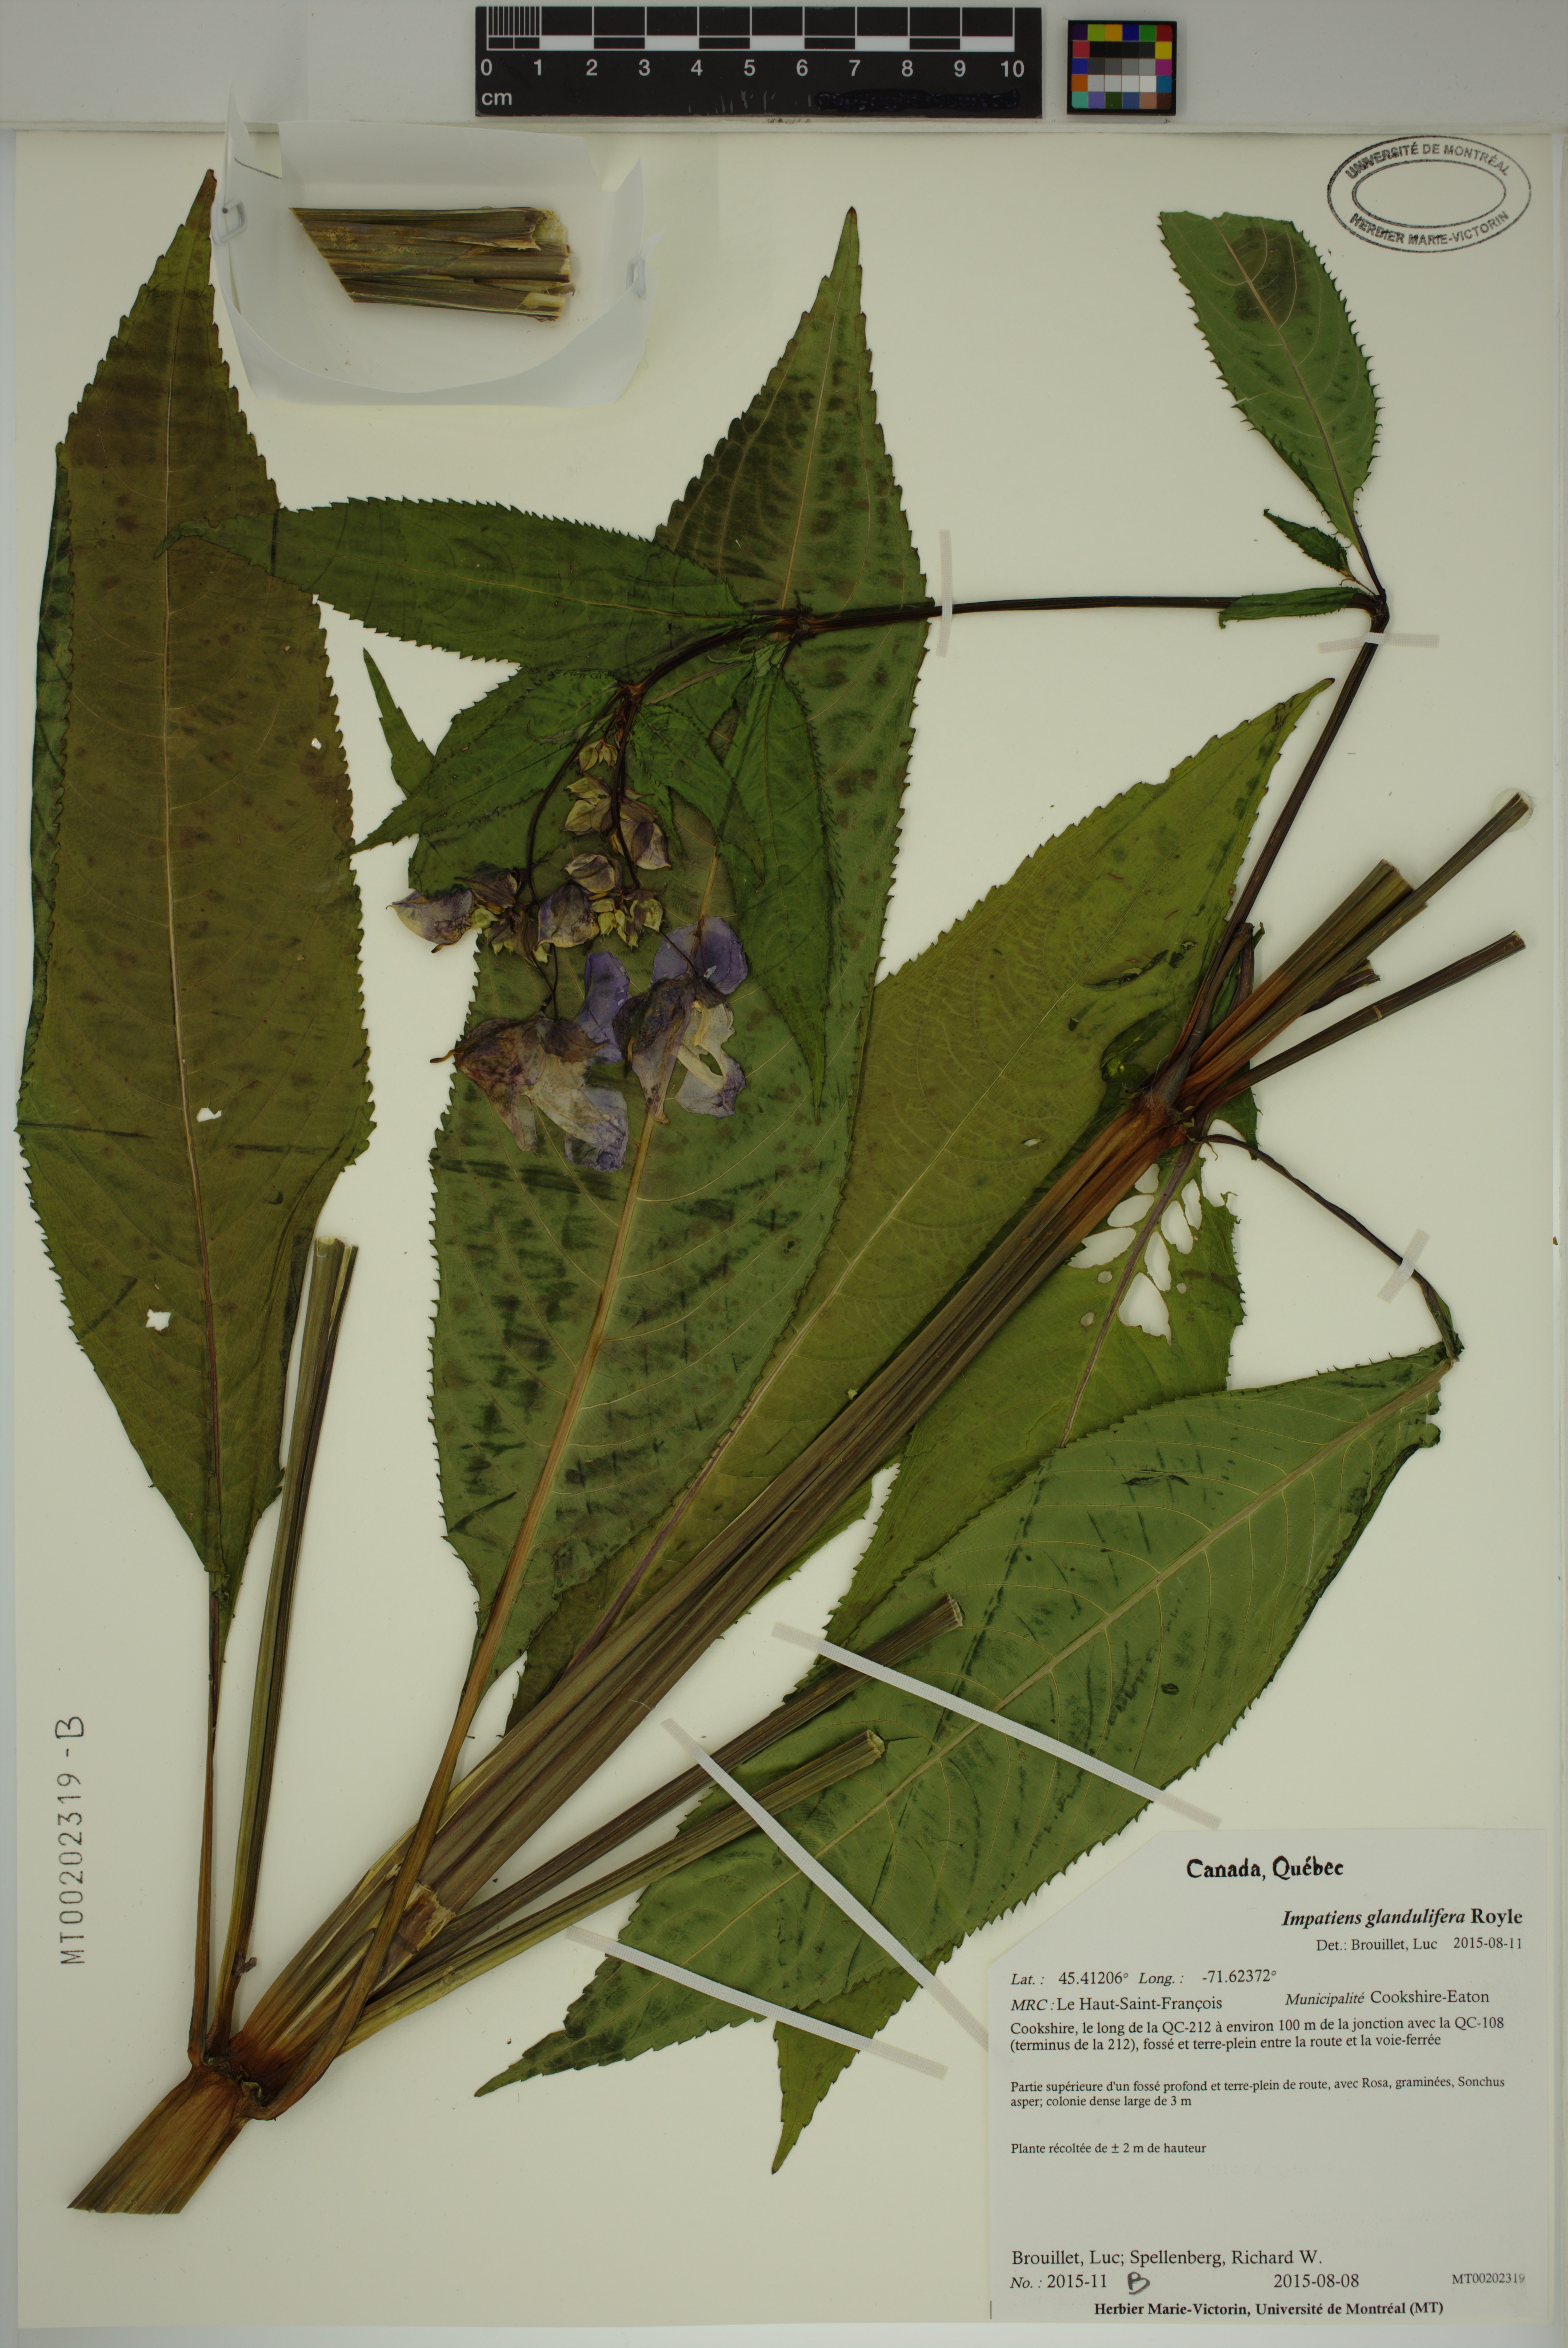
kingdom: Plantae
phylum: Tracheophyta
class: Magnoliopsida
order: Ericales
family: Balsaminaceae
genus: Impatiens
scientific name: Impatiens glandulifera
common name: Himalayan balsam
